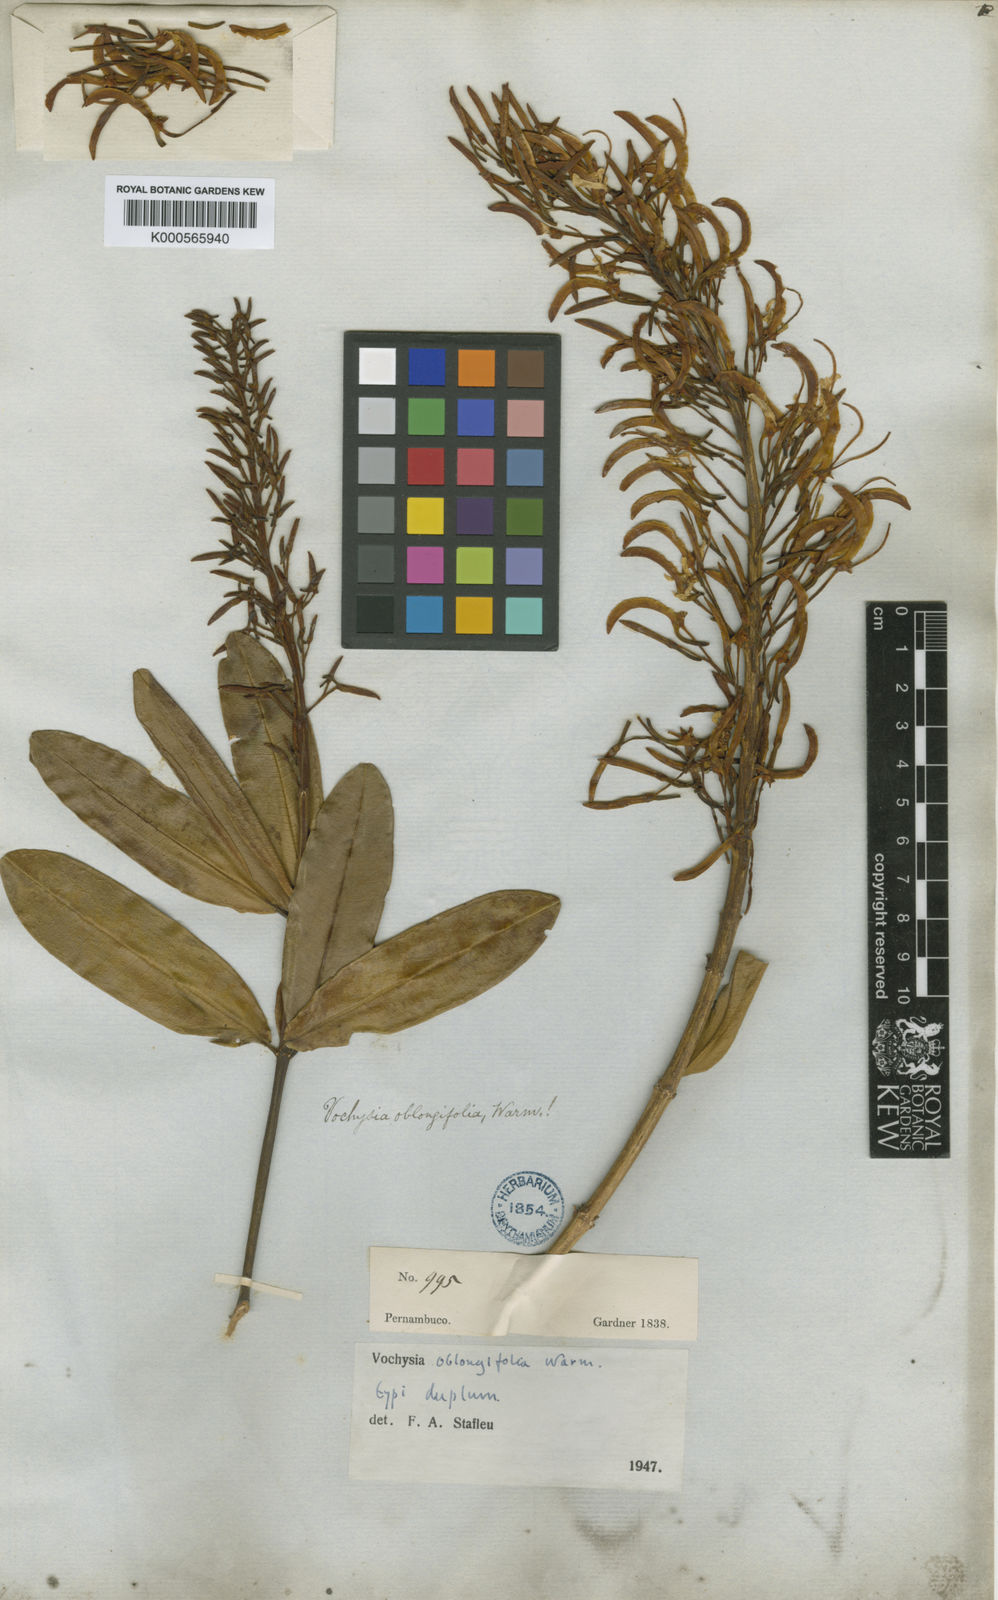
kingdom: Plantae
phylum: Tracheophyta
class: Magnoliopsida
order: Myrtales
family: Vochysiaceae
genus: Vochysia
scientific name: Vochysia oblongifolia
